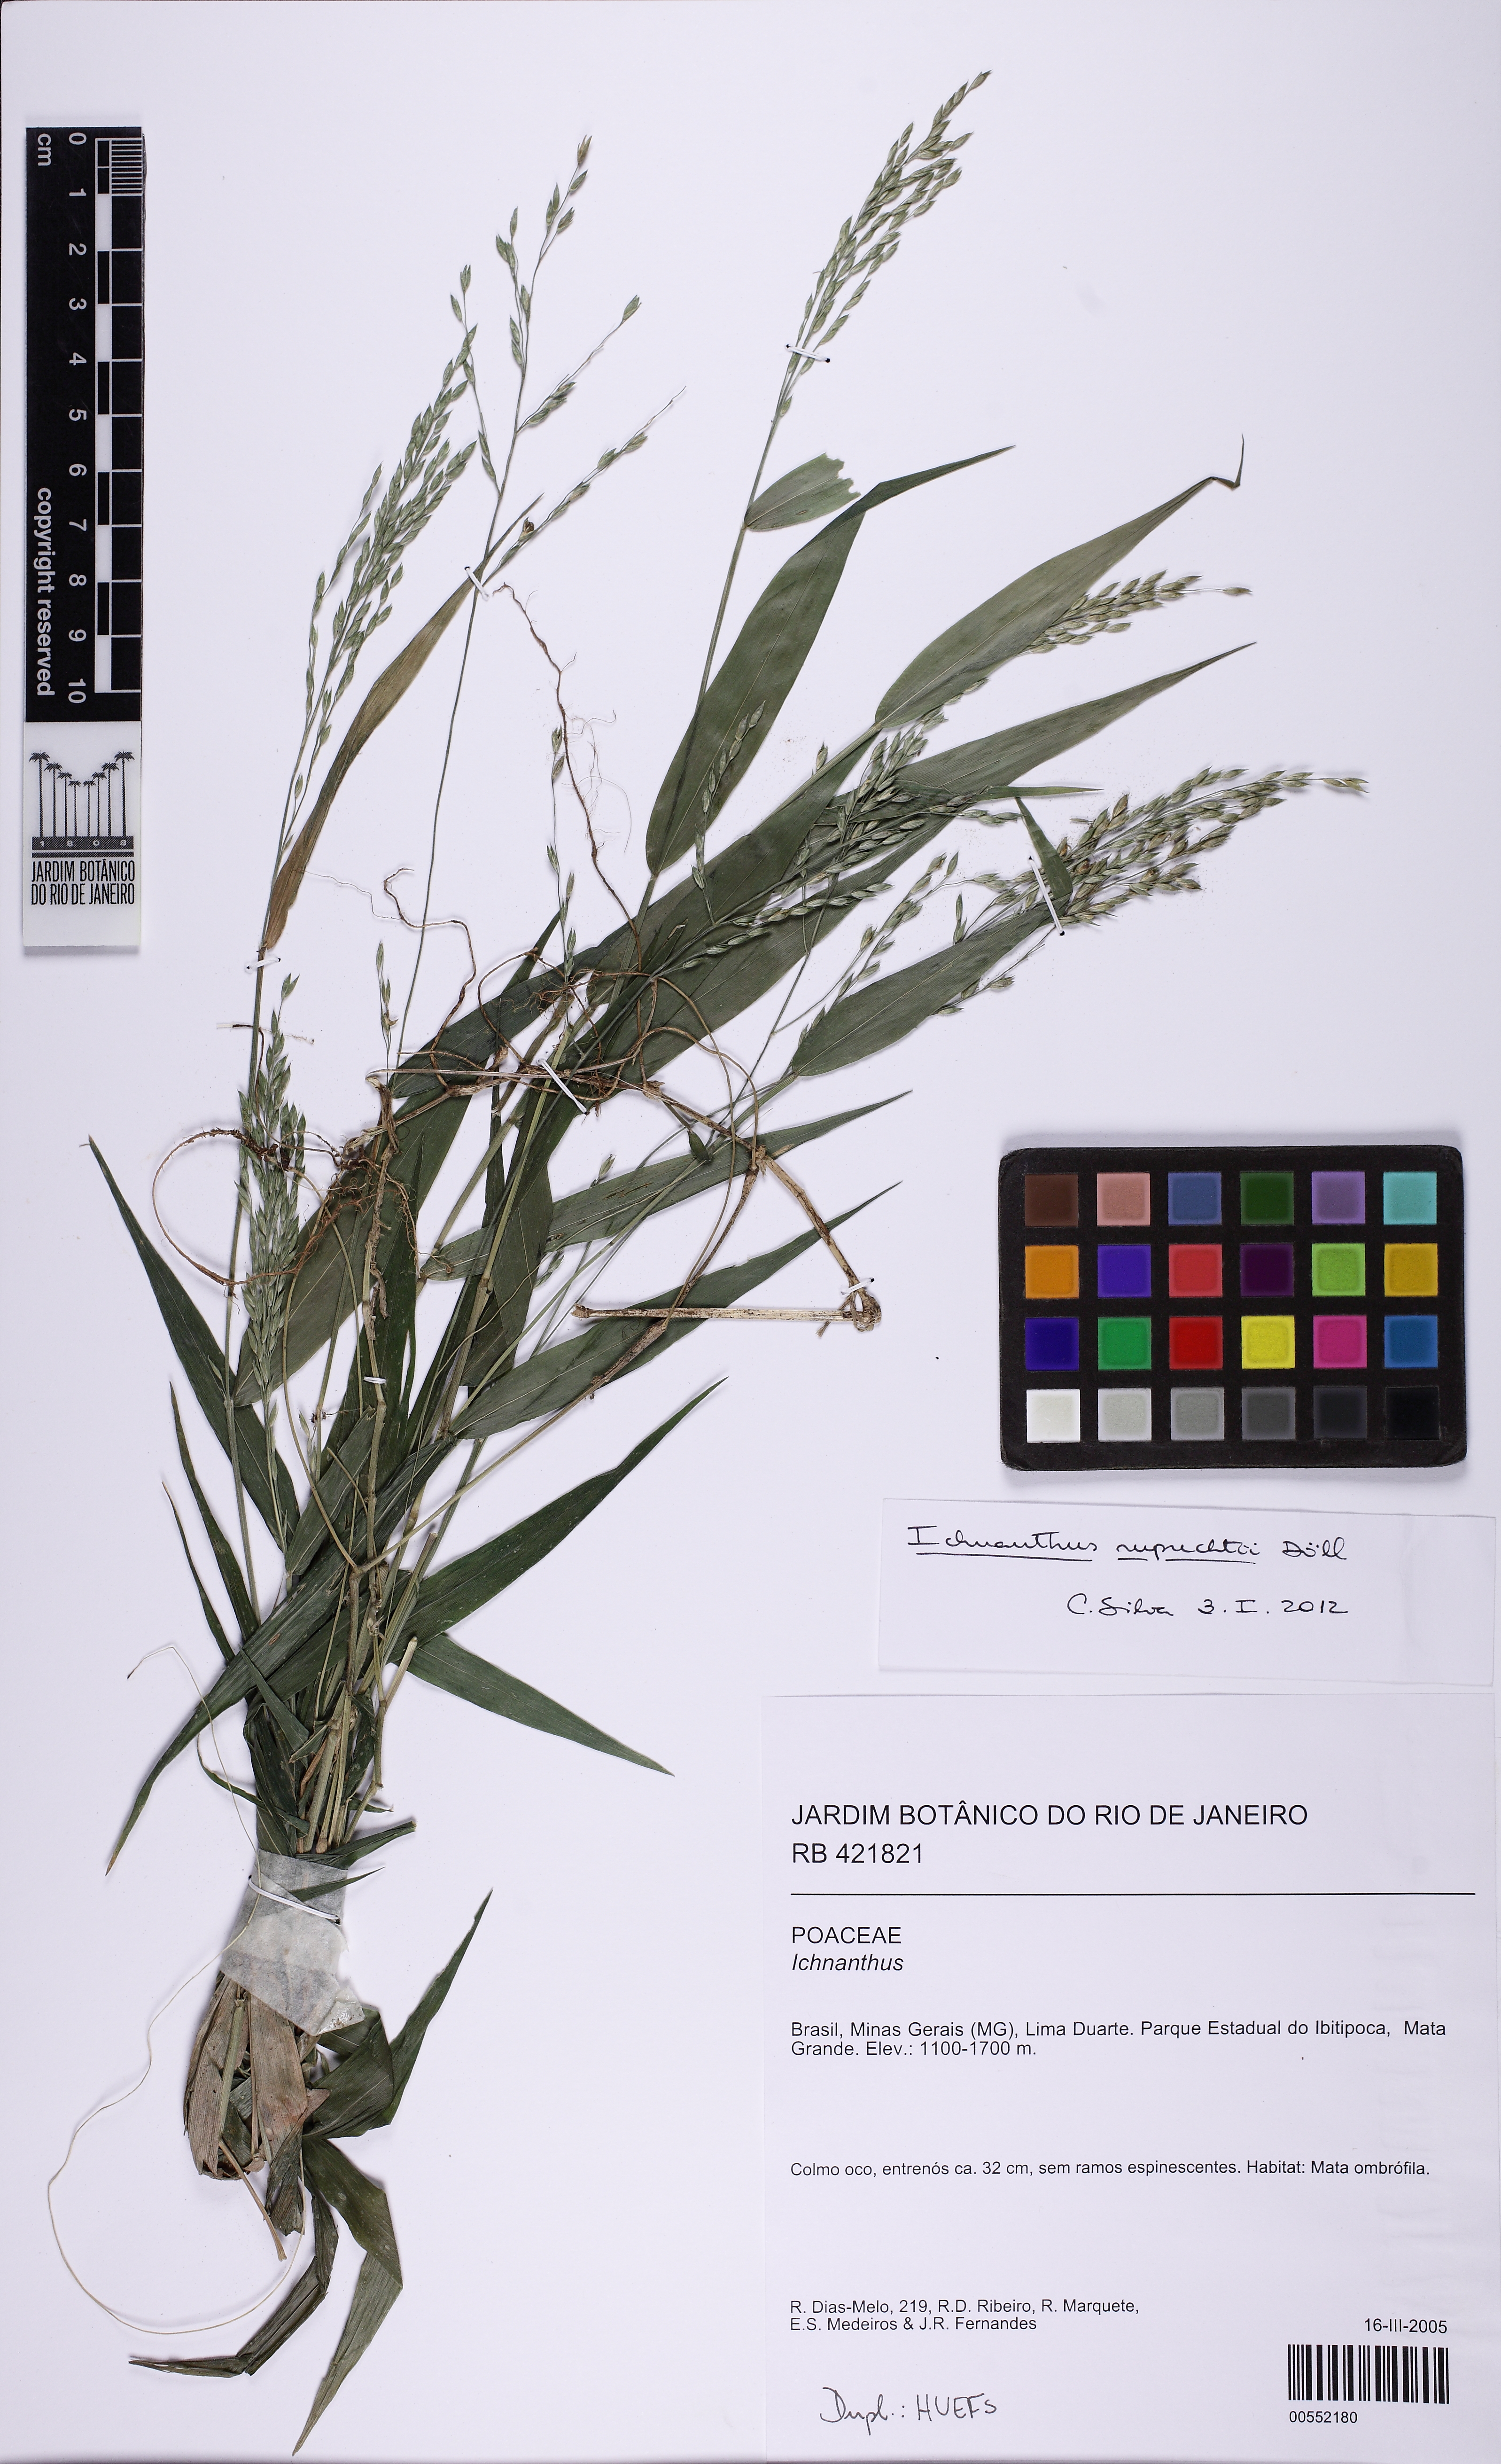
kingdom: Plantae
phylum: Tracheophyta
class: Liliopsida
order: Poales
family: Poaceae
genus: Ichnanthus
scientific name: Ichnanthus pallens
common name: Water grass
